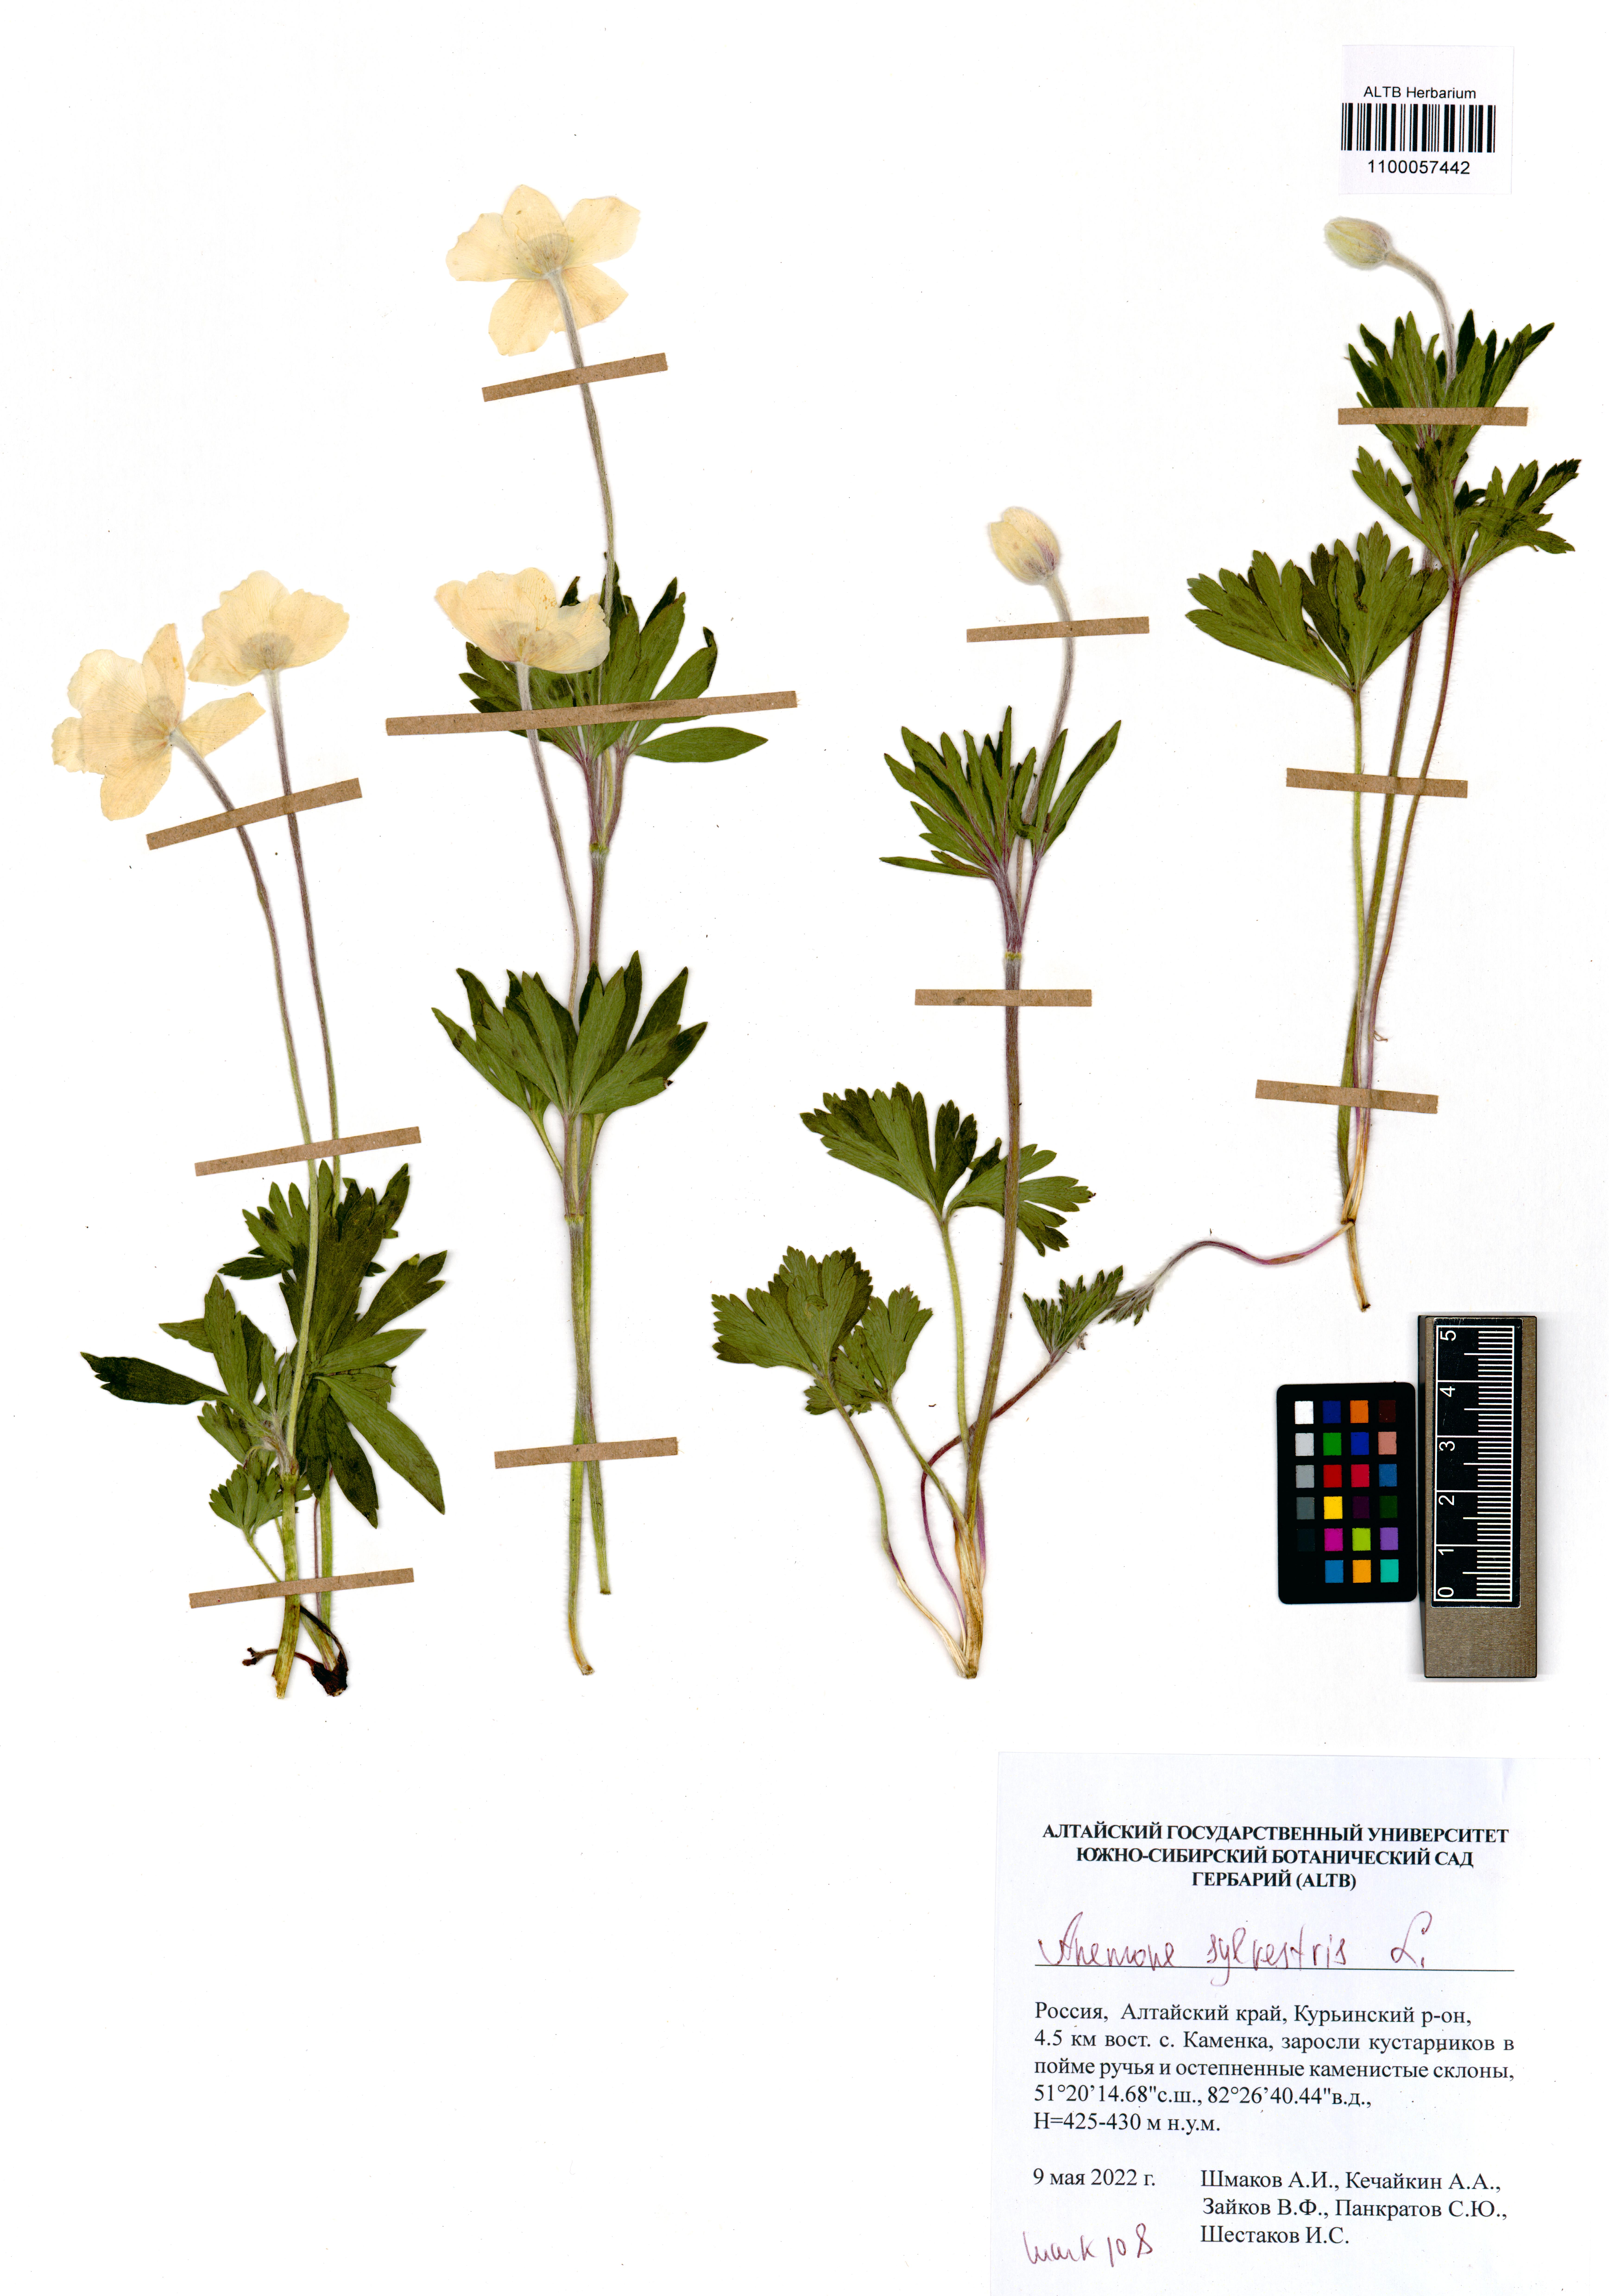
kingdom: Plantae
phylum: Tracheophyta
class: Magnoliopsida
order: Ranunculales
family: Ranunculaceae
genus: Anemone
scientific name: Anemone sylvestris
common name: Snowdrop anemone
